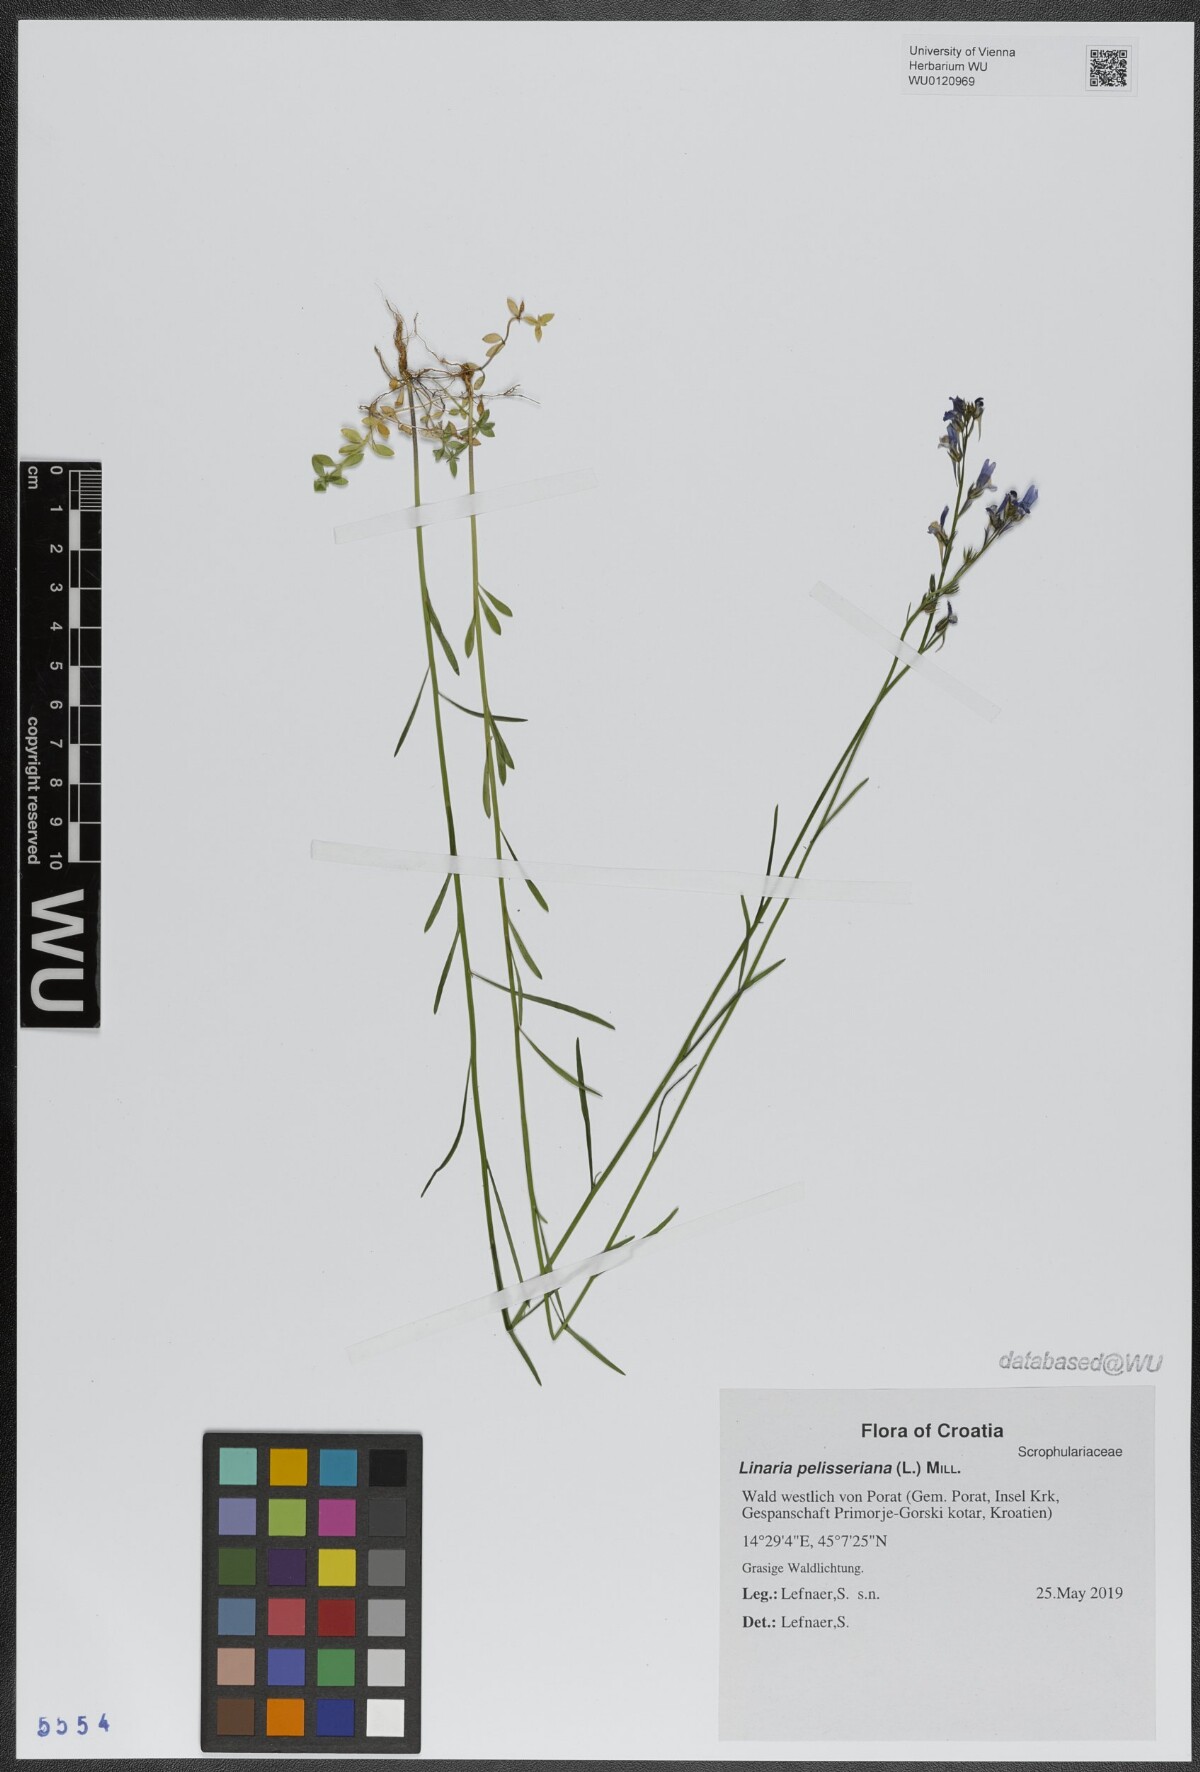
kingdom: Plantae
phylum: Tracheophyta
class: Magnoliopsida
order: Lamiales
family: Plantaginaceae
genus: Linaria
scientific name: Linaria pelisseriana
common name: Jersey toadflax
